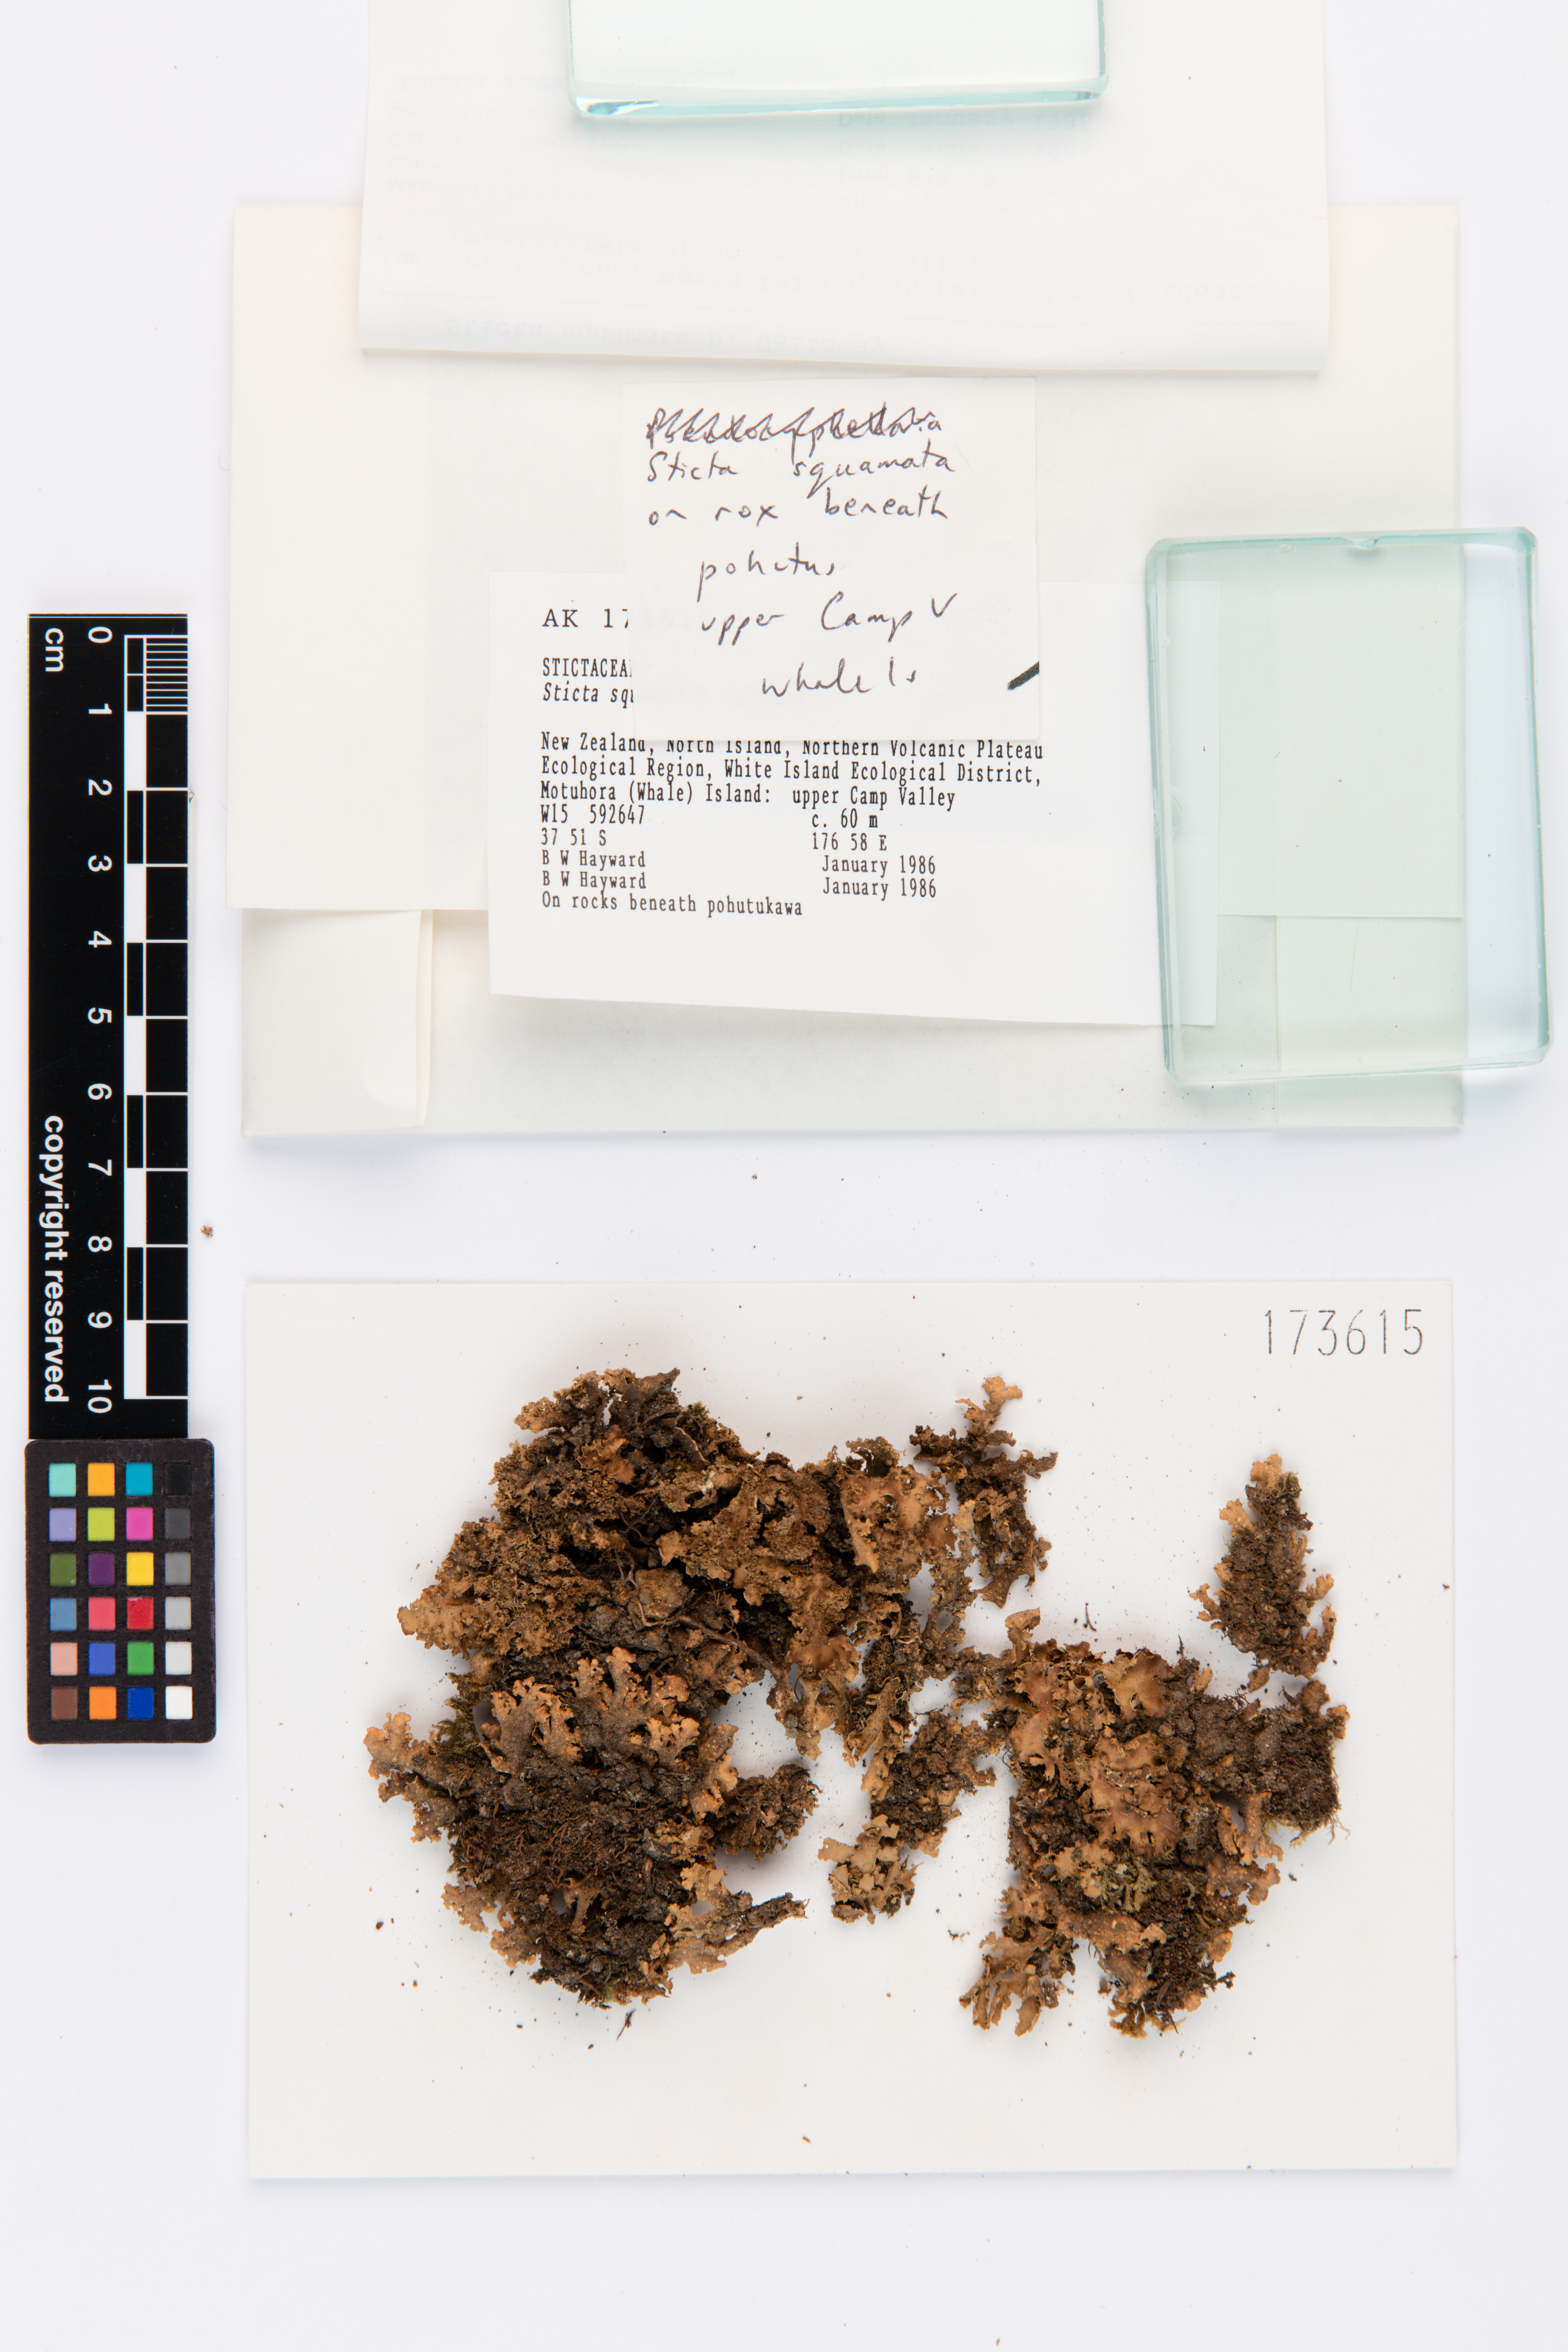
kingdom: Fungi
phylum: Ascomycota
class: Lecanoromycetes
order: Peltigerales
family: Lobariaceae
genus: Sticta
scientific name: Sticta squamata
